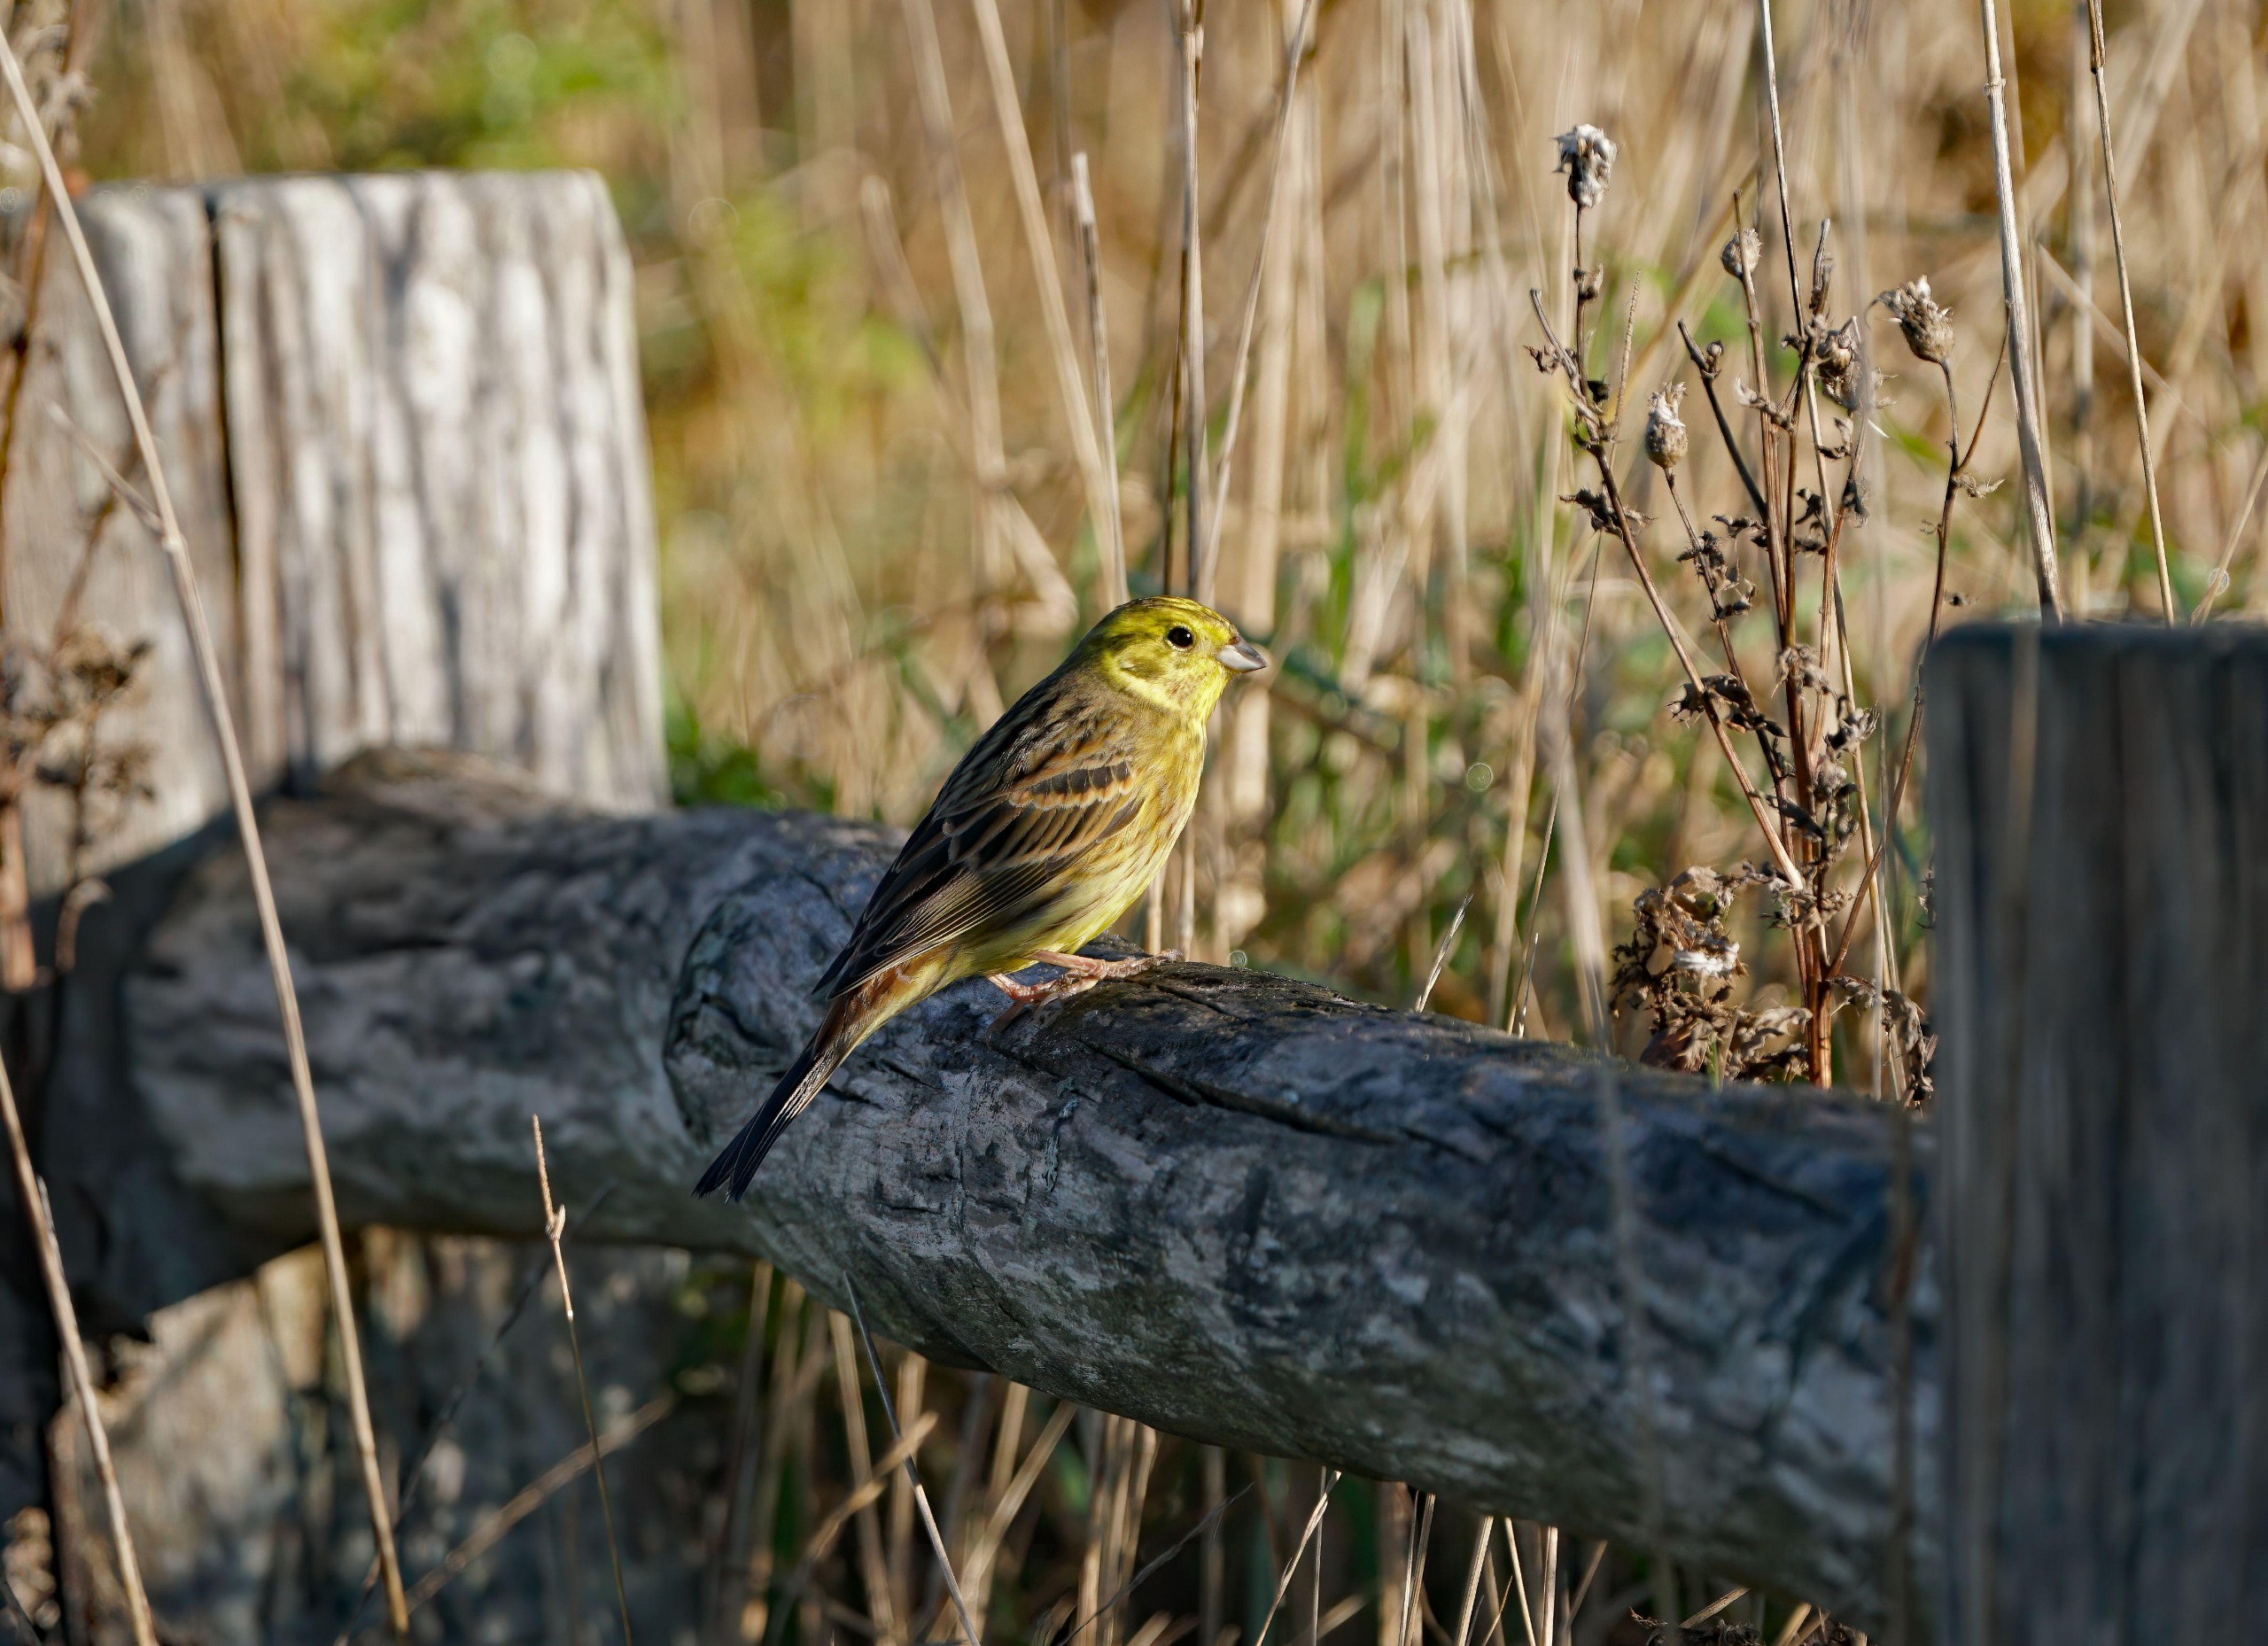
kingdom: Animalia
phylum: Chordata
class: Aves
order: Passeriformes
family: Emberizidae
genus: Emberiza
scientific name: Emberiza citrinella
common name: Gulspurv
